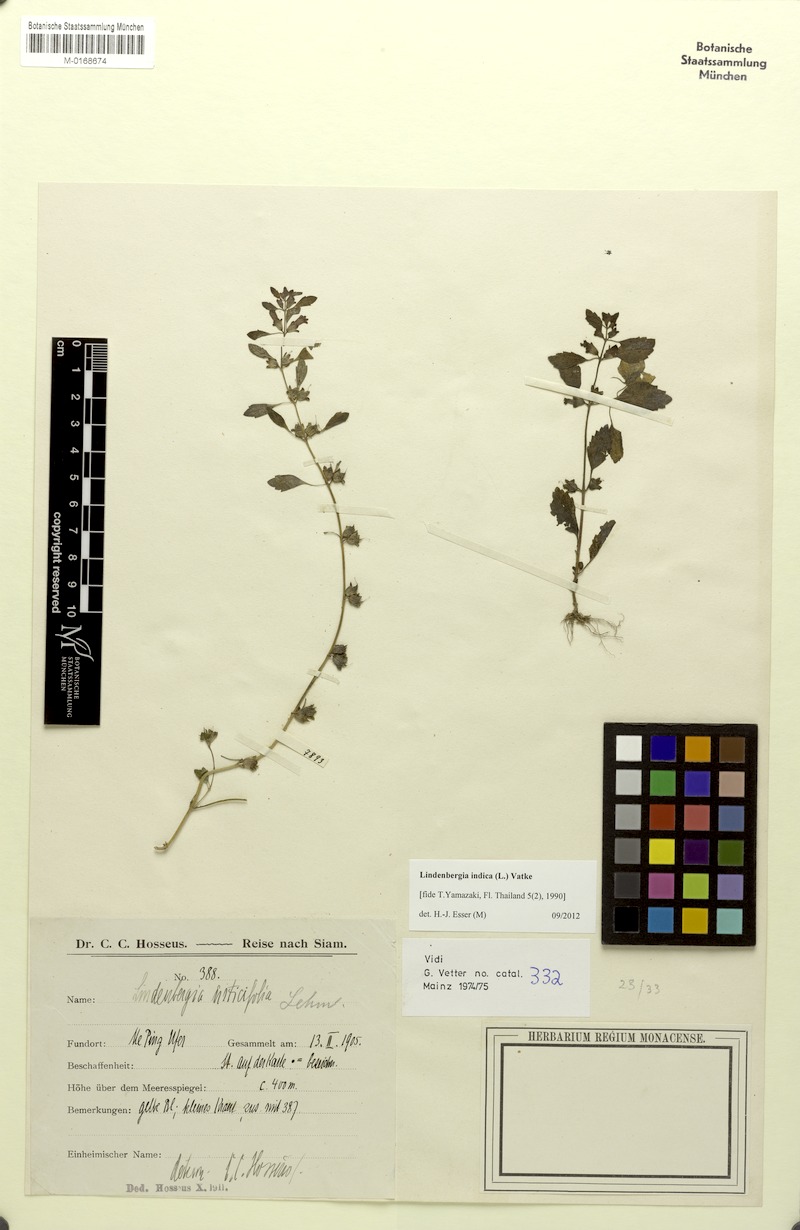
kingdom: Plantae
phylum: Tracheophyta
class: Magnoliopsida
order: Lamiales
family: Orobanchaceae
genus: Lindenbergia
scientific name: Lindenbergia indica
